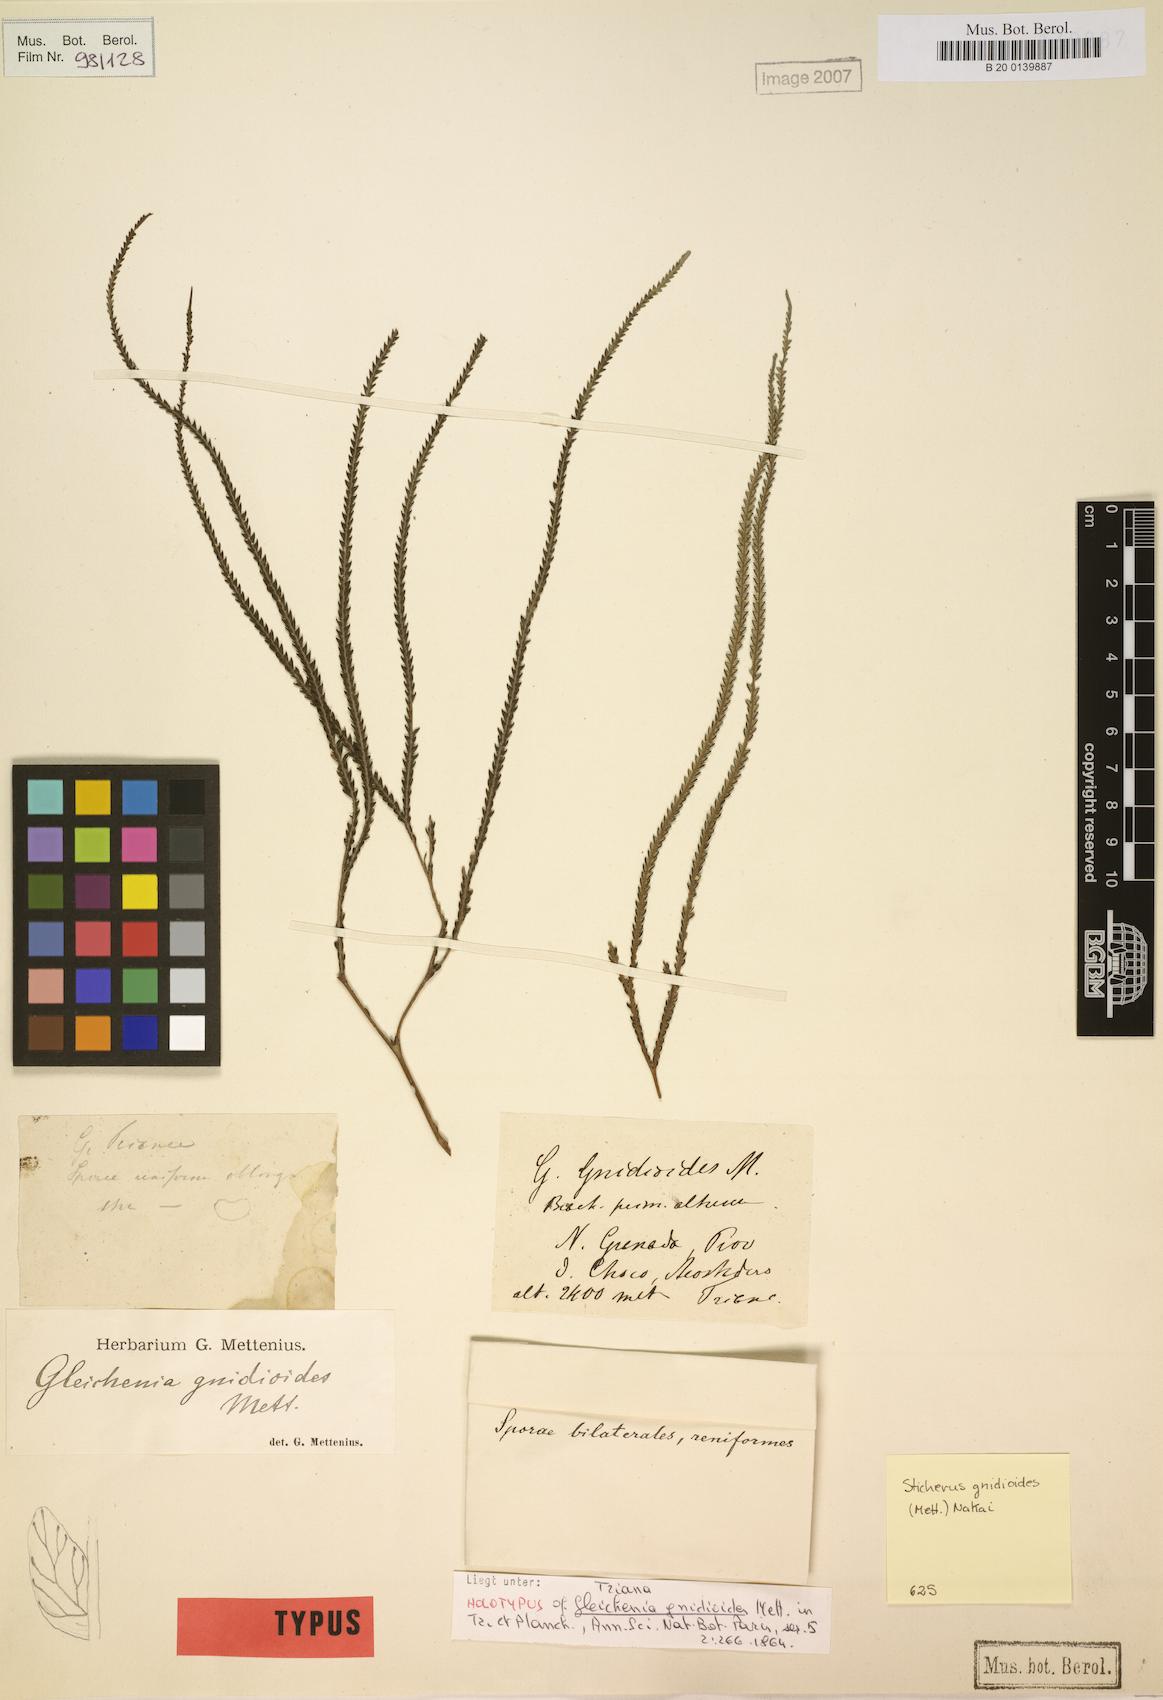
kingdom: Plantae
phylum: Tracheophyta
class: Polypodiopsida
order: Gleicheniales
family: Gleicheniaceae
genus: Sticherus
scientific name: Sticherus gnidioides
